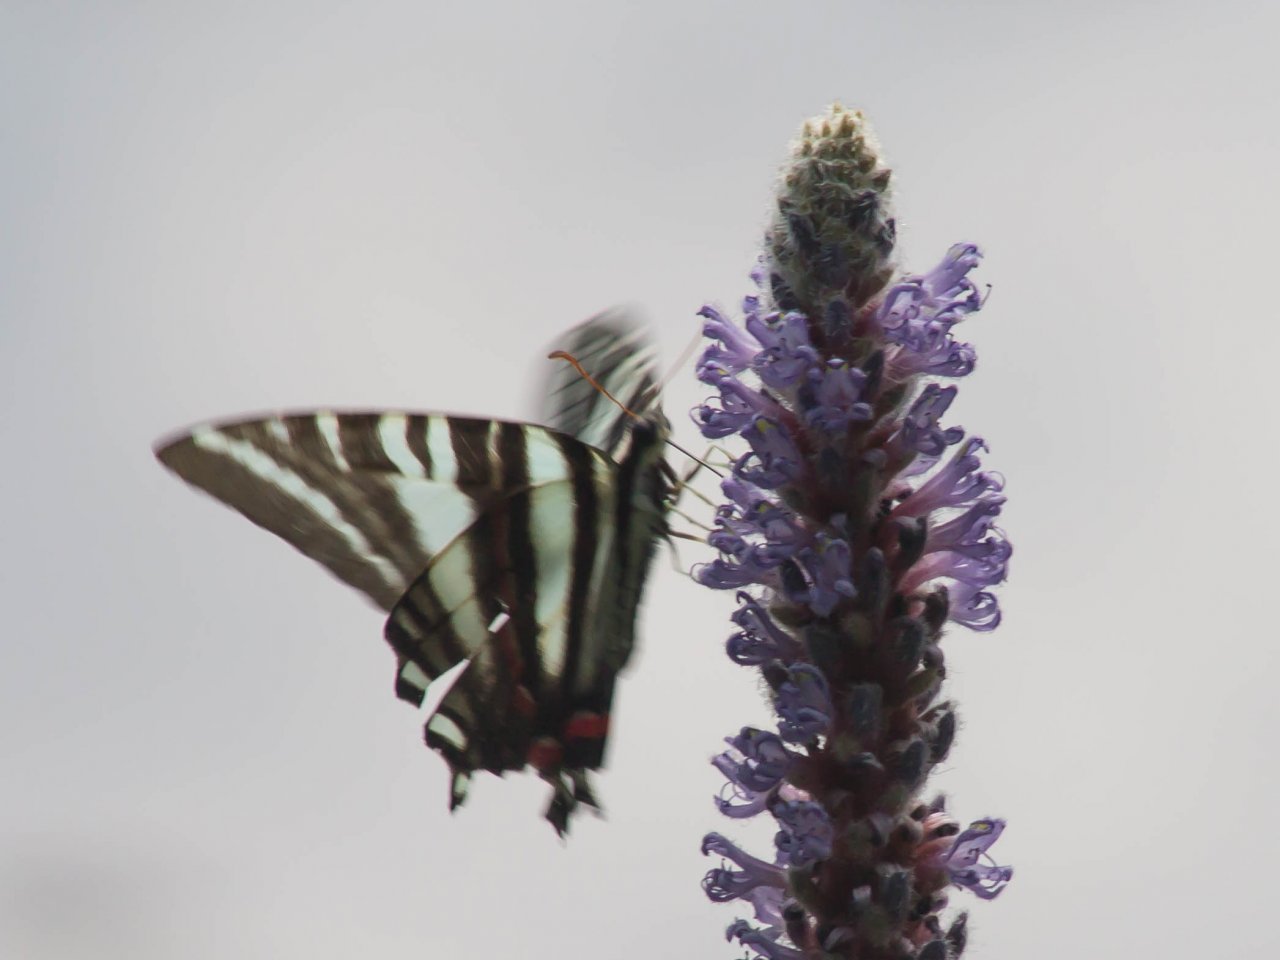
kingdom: Animalia
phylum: Arthropoda
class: Insecta
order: Lepidoptera
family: Papilionidae
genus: Protographium
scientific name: Protographium marcellus
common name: Zebra Swallowtail
